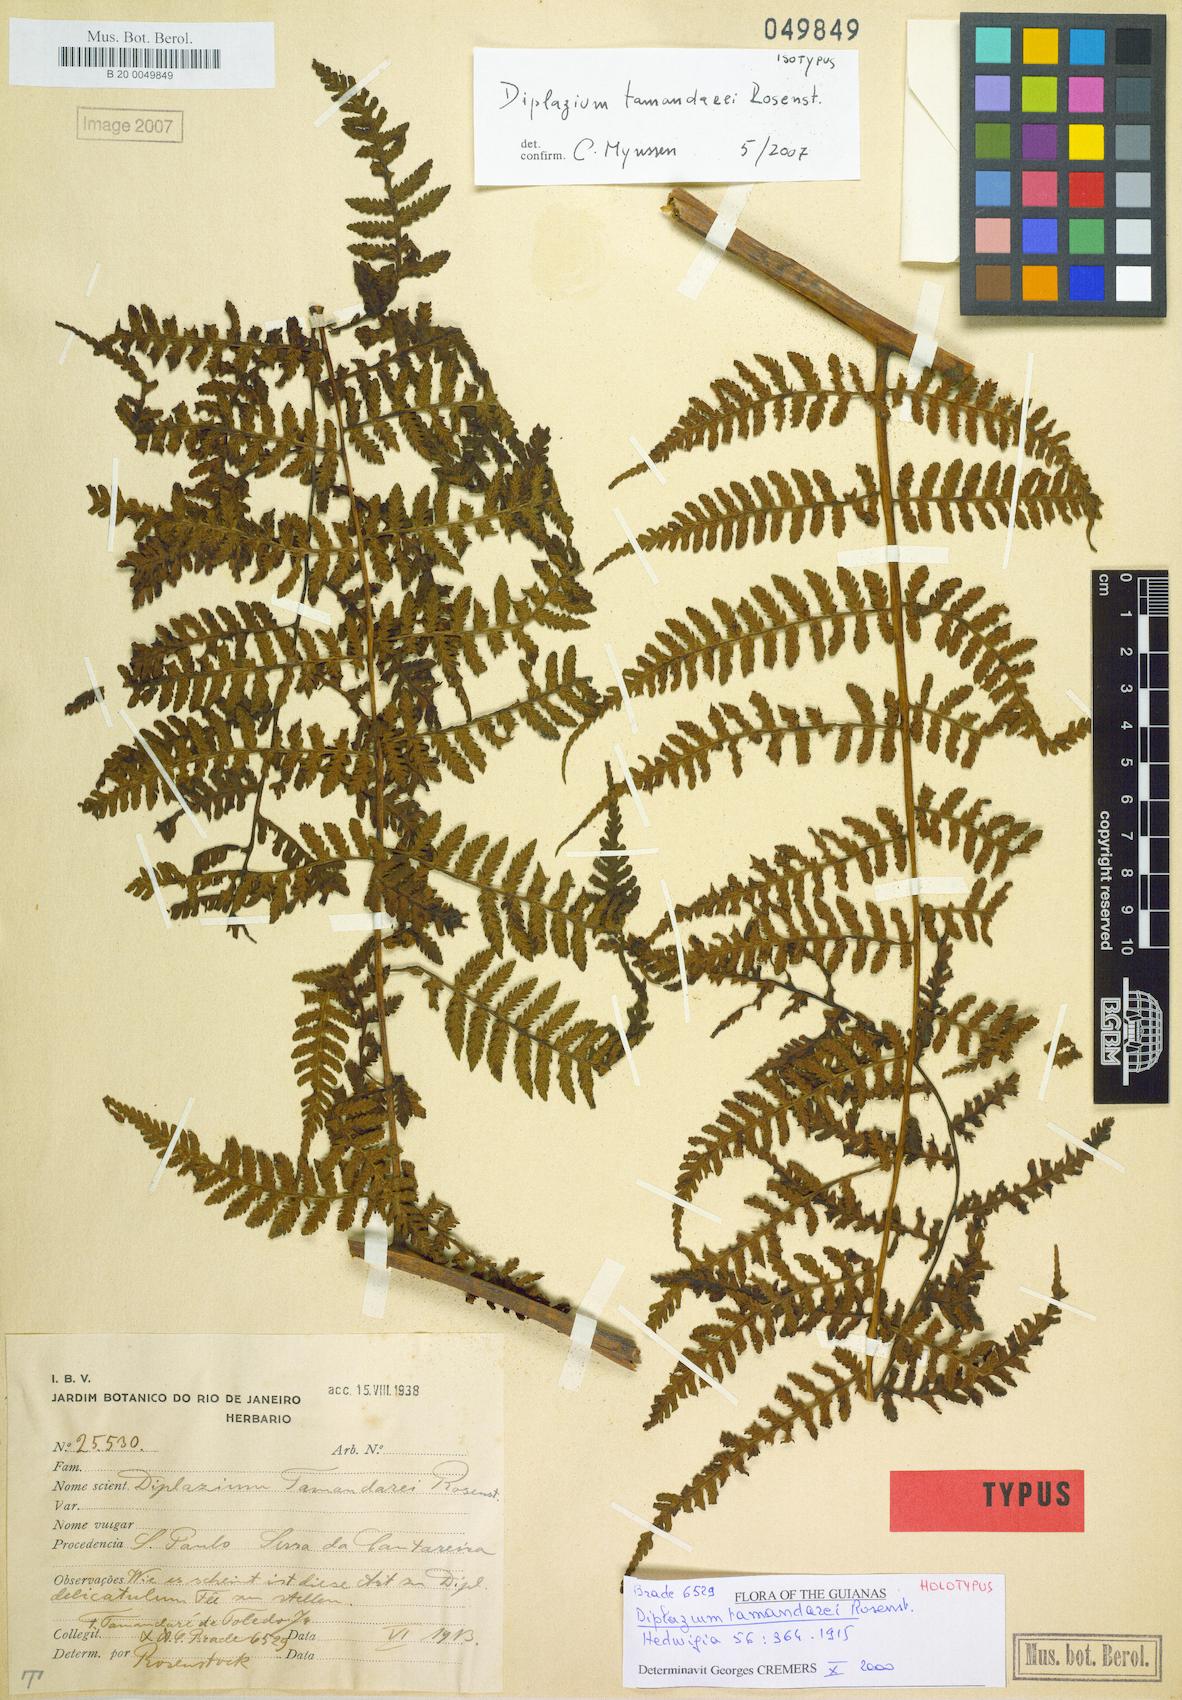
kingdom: Plantae
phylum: Tracheophyta
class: Polypodiopsida
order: Polypodiales
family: Athyriaceae
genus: Diplazium
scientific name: Diplazium tamandarei
